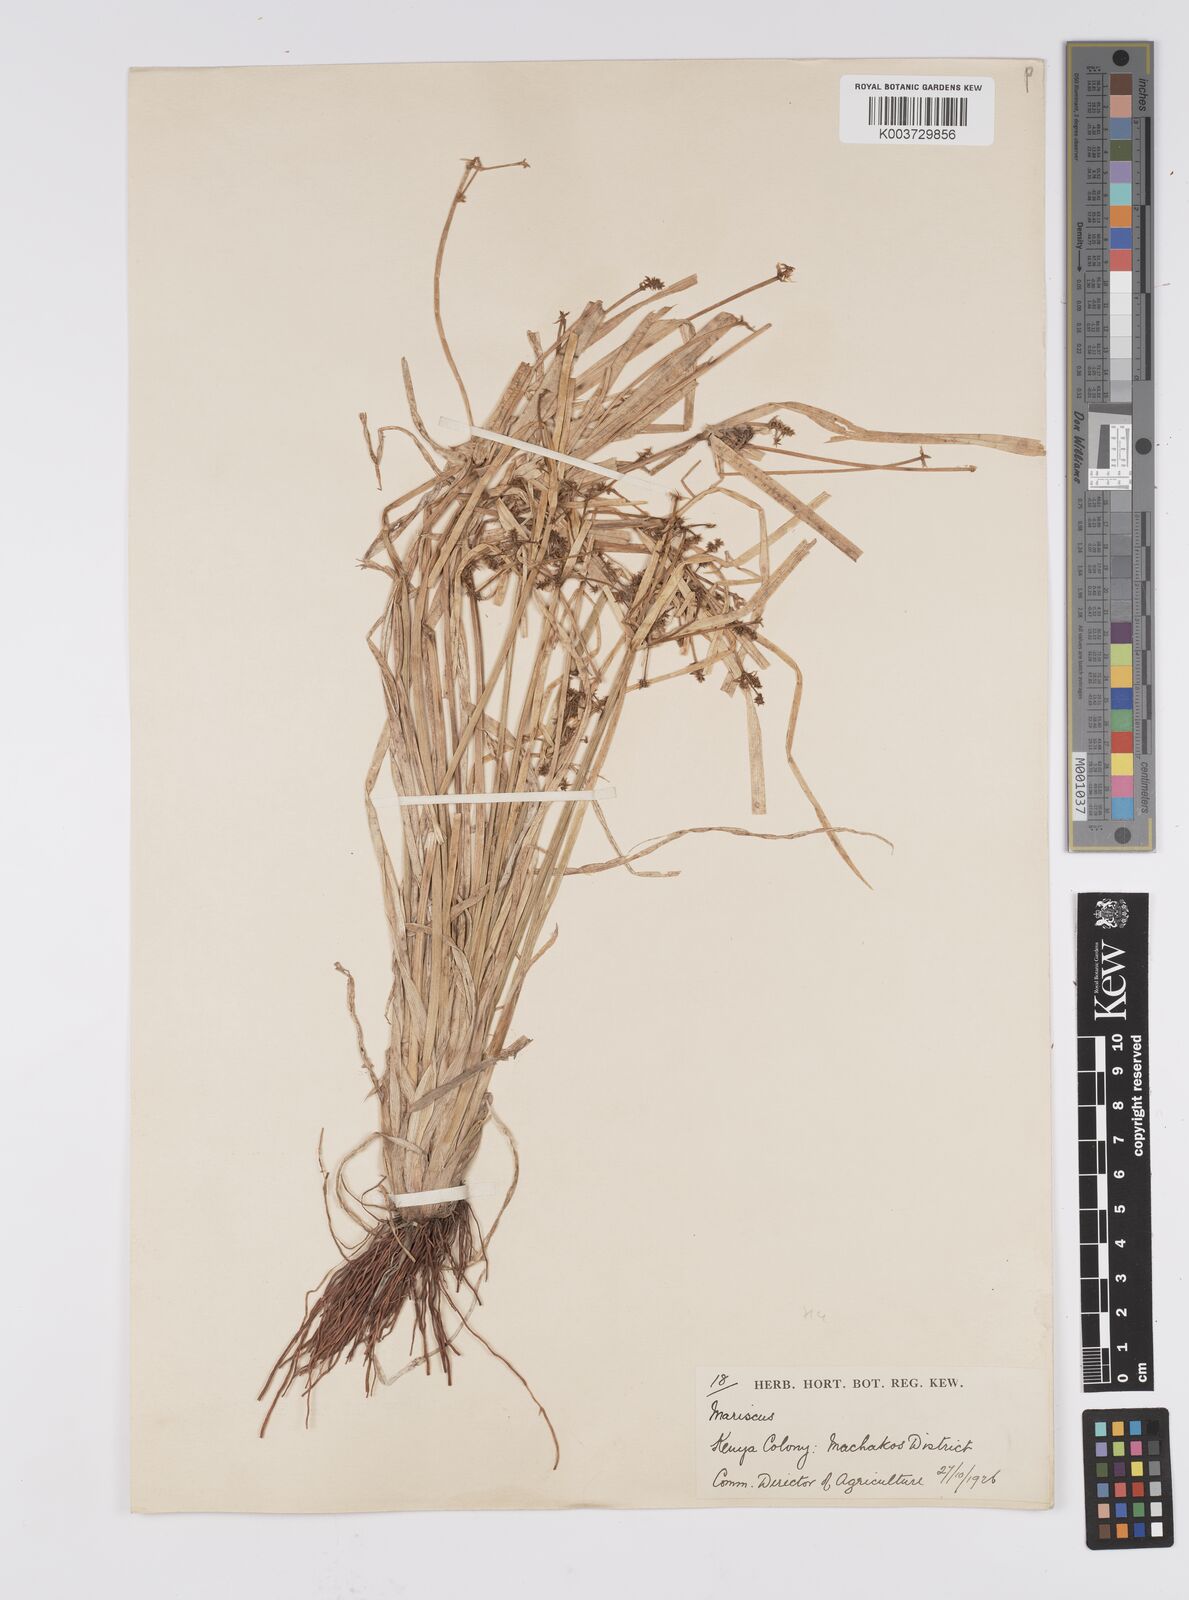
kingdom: Plantae
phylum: Tracheophyta
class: Liliopsida
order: Poales
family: Cyperaceae
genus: Cyperus
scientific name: Cyperus assimilis
